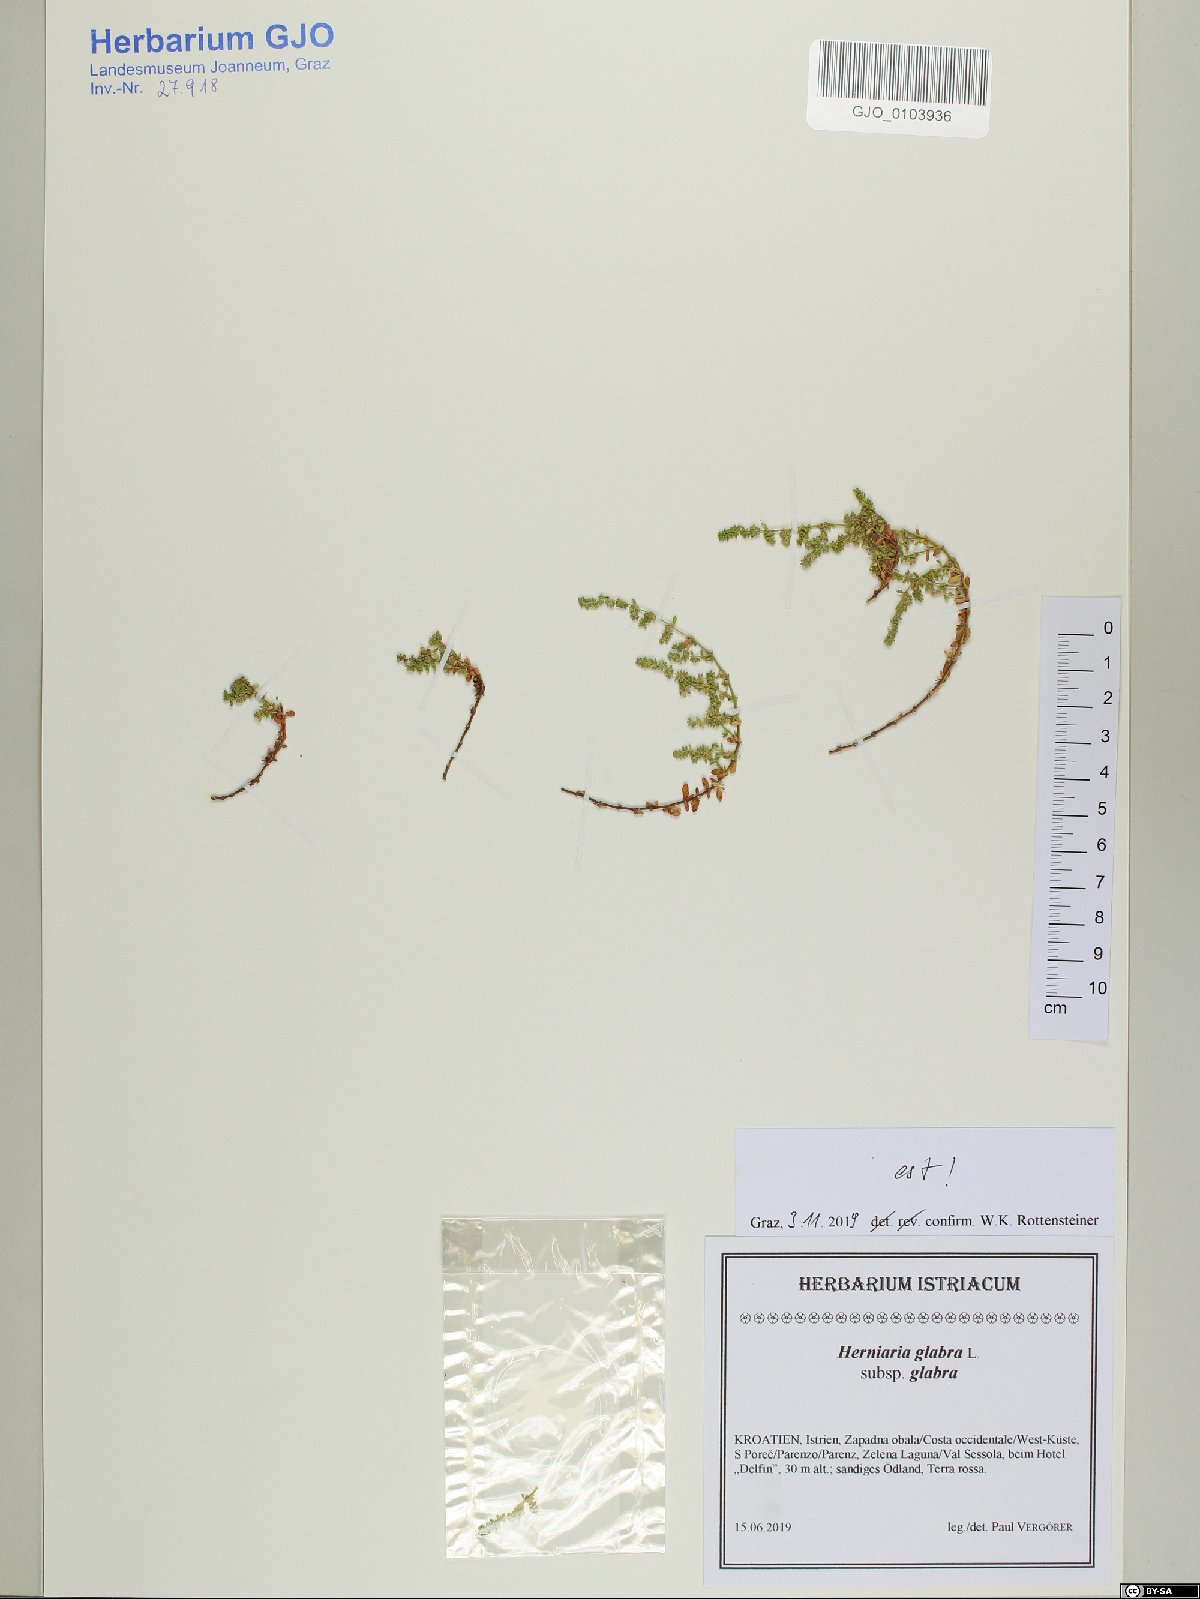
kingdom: Plantae
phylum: Tracheophyta
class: Magnoliopsida
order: Caryophyllales
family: Caryophyllaceae
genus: Herniaria
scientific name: Herniaria glabra
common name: Smooth rupturewort
